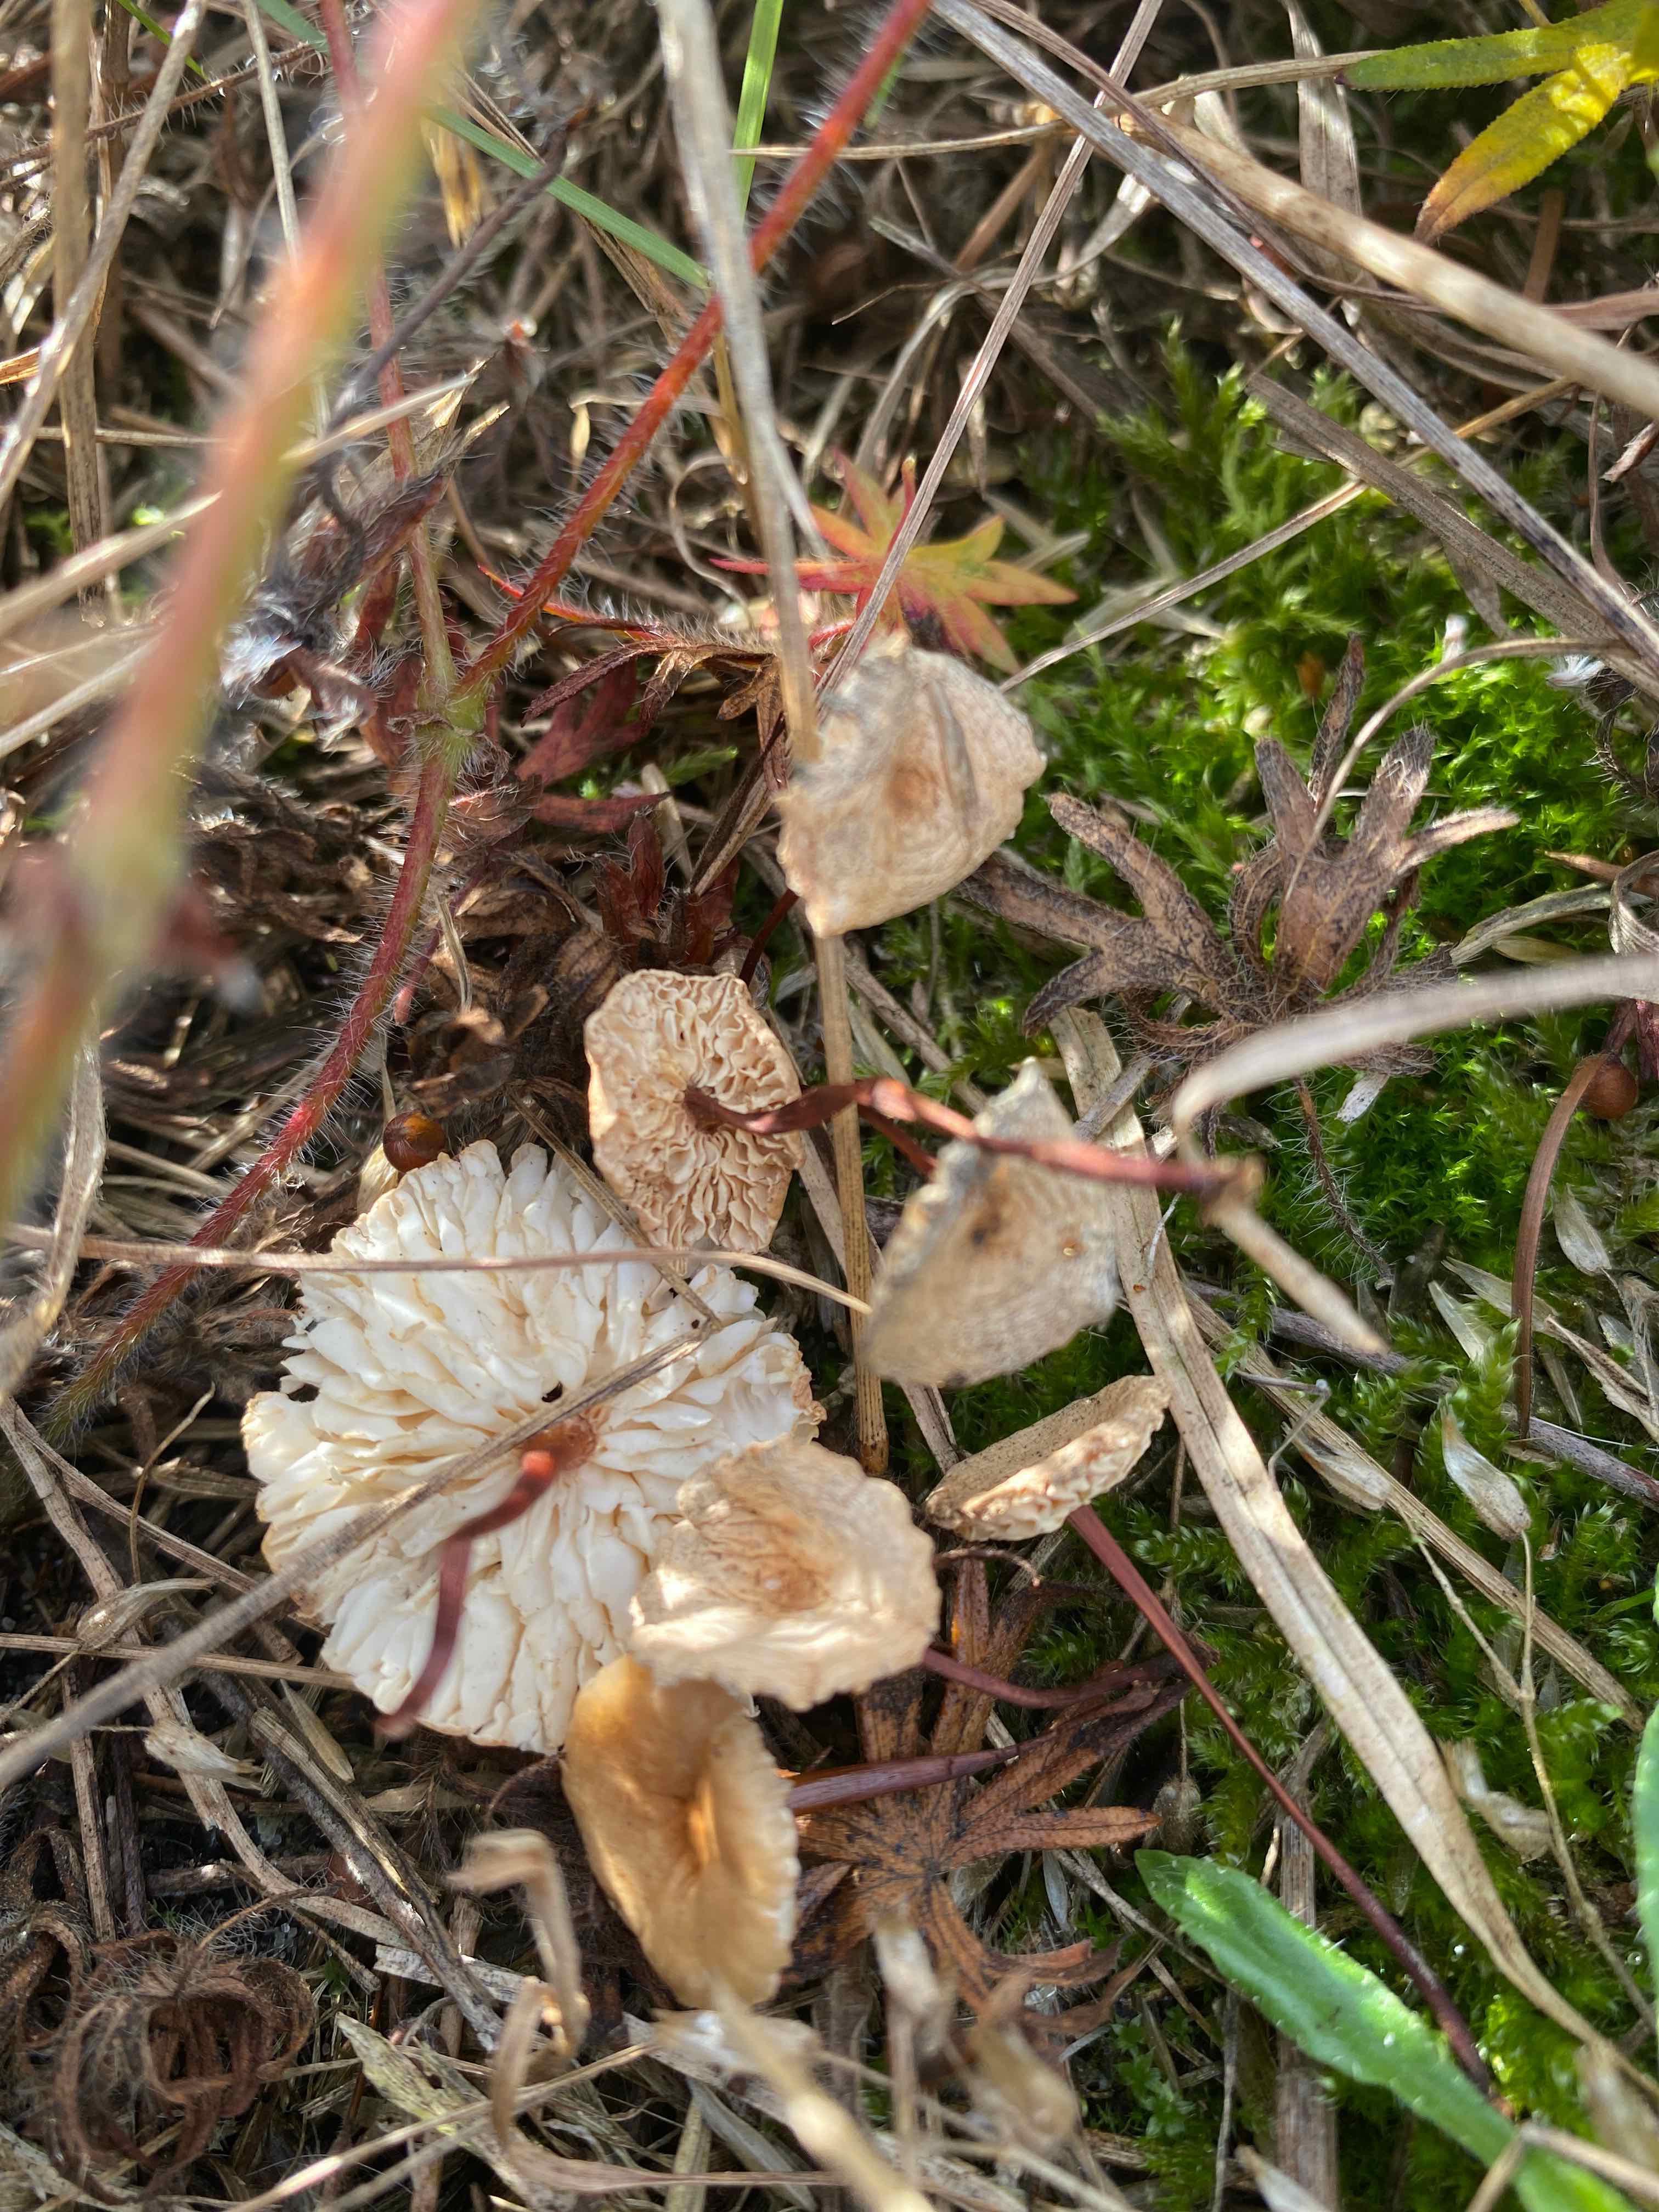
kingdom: Fungi
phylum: Basidiomycota
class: Agaricomycetes
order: Agaricales
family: Omphalotaceae
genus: Mycetinis
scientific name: Mycetinis scorodonius
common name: lille løghat
